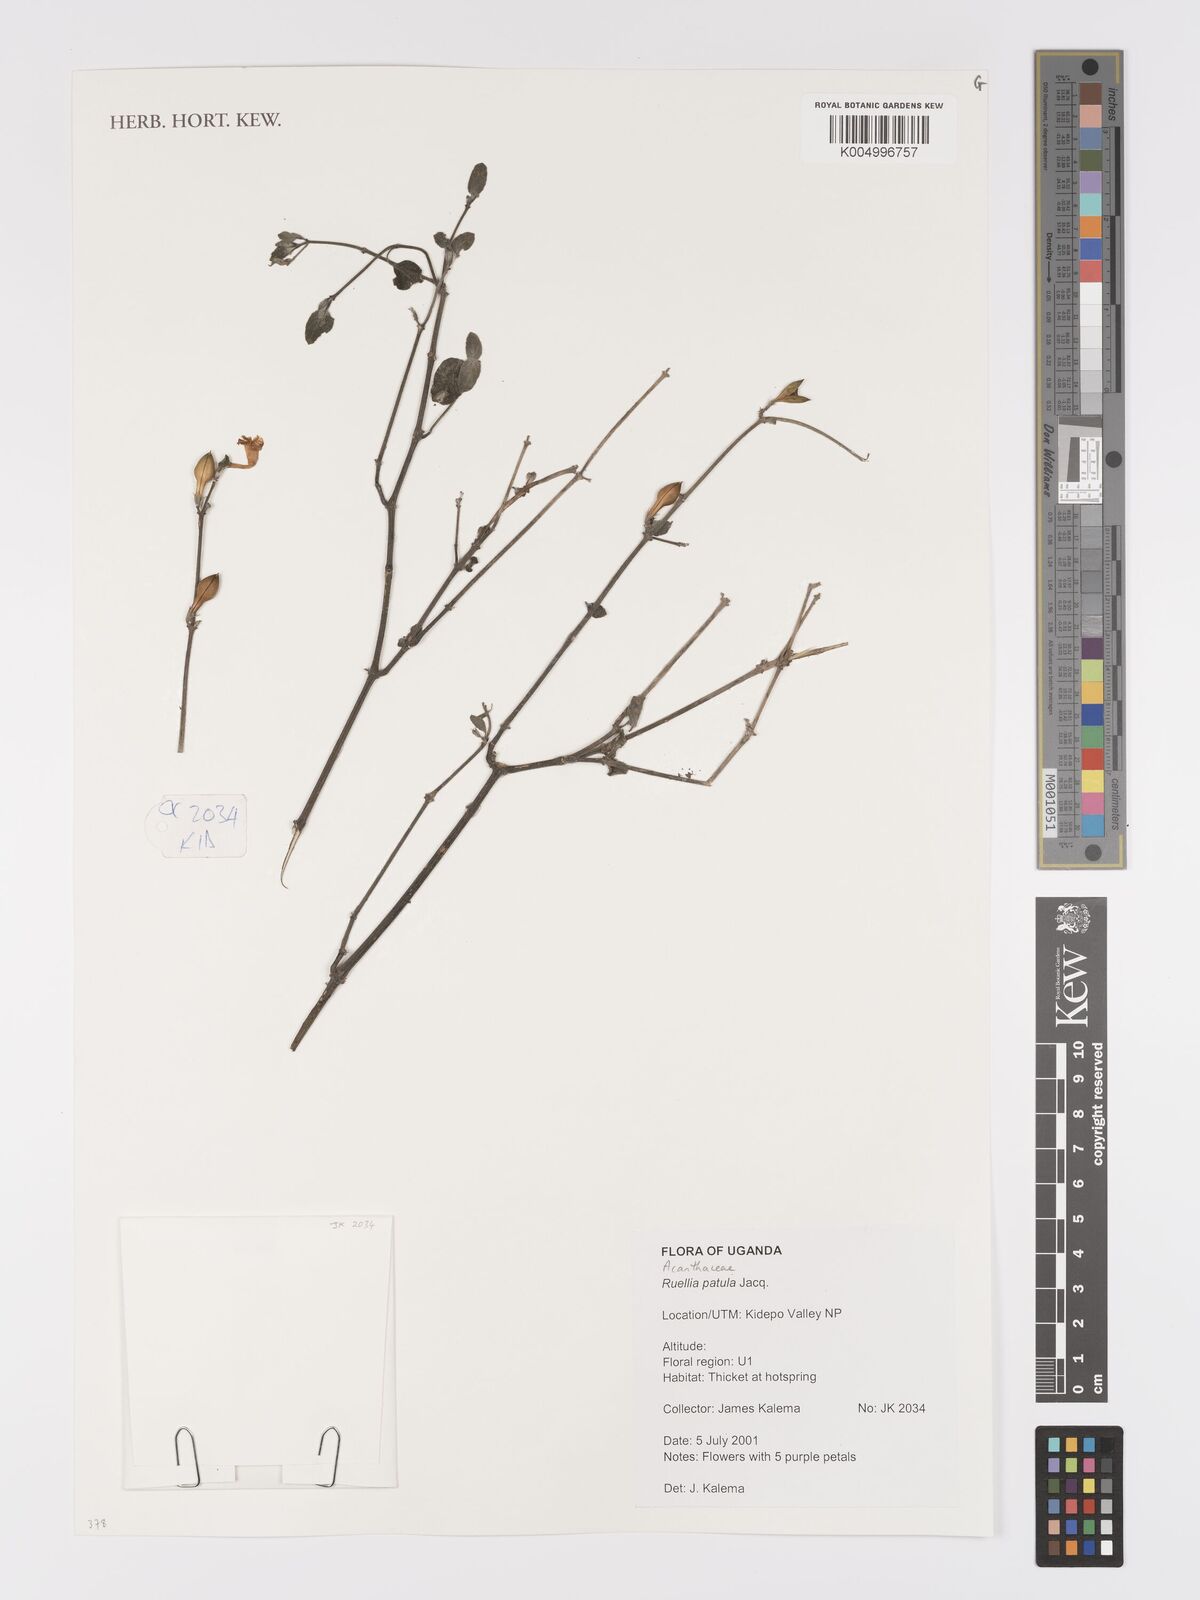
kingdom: Plantae
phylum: Tracheophyta
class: Magnoliopsida
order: Lamiales
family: Acanthaceae
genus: Ruellia
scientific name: Ruellia patula
